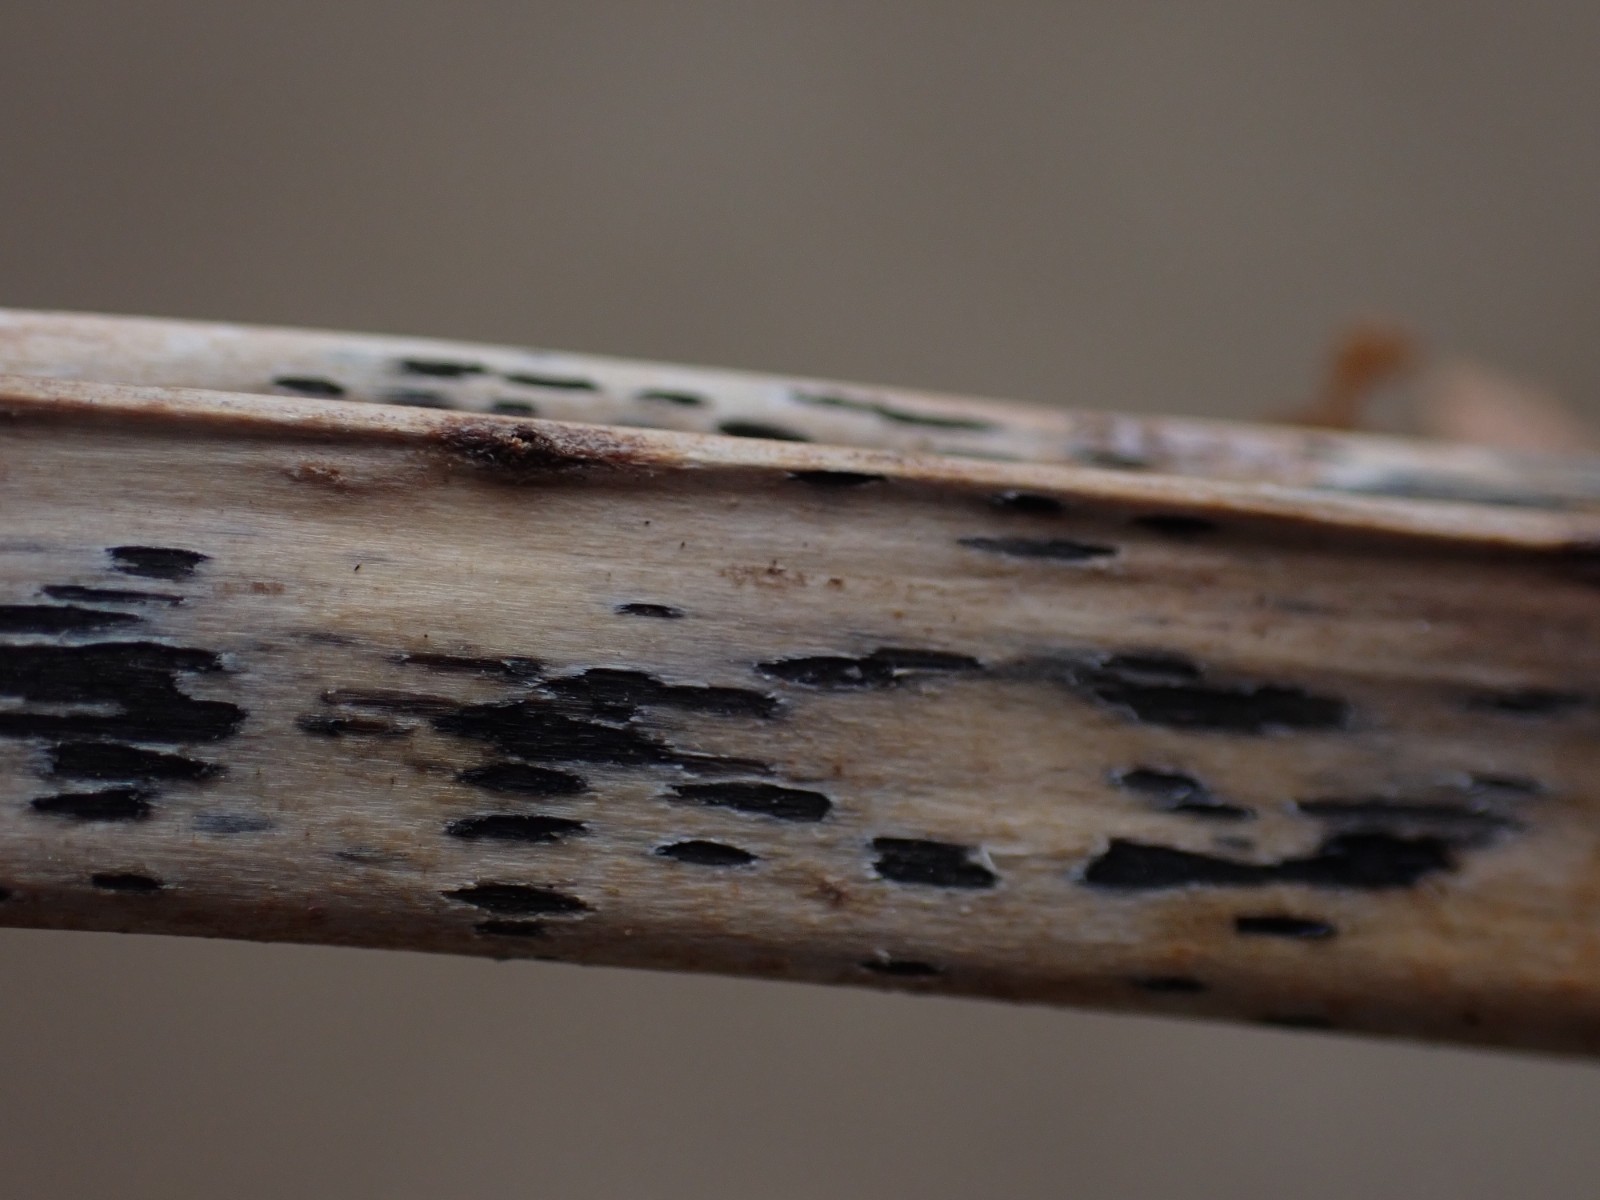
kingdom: Fungi
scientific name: Fungi
